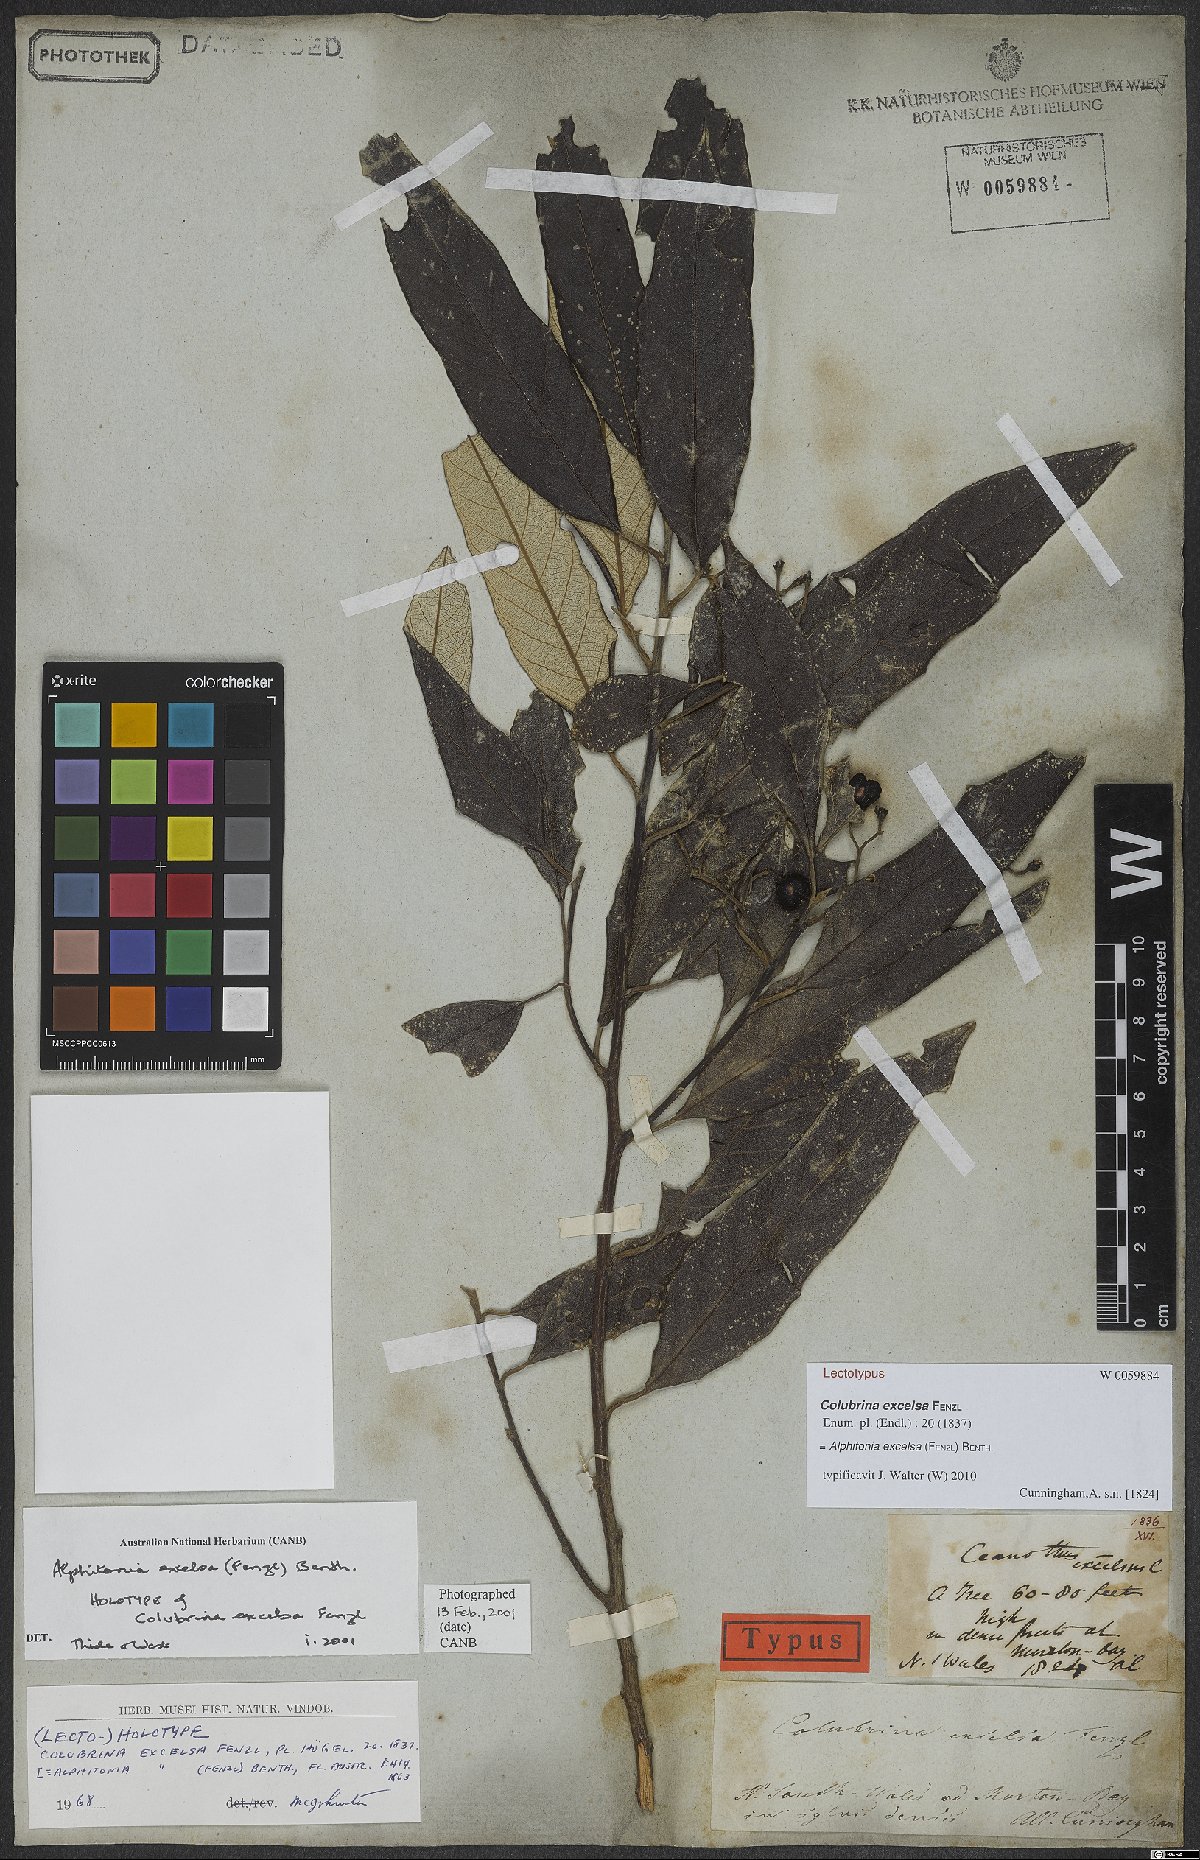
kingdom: Plantae
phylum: Tracheophyta
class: Magnoliopsida
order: Rosales
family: Rhamnaceae
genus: Alphitonia
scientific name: Alphitonia excelsa
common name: Red ash
